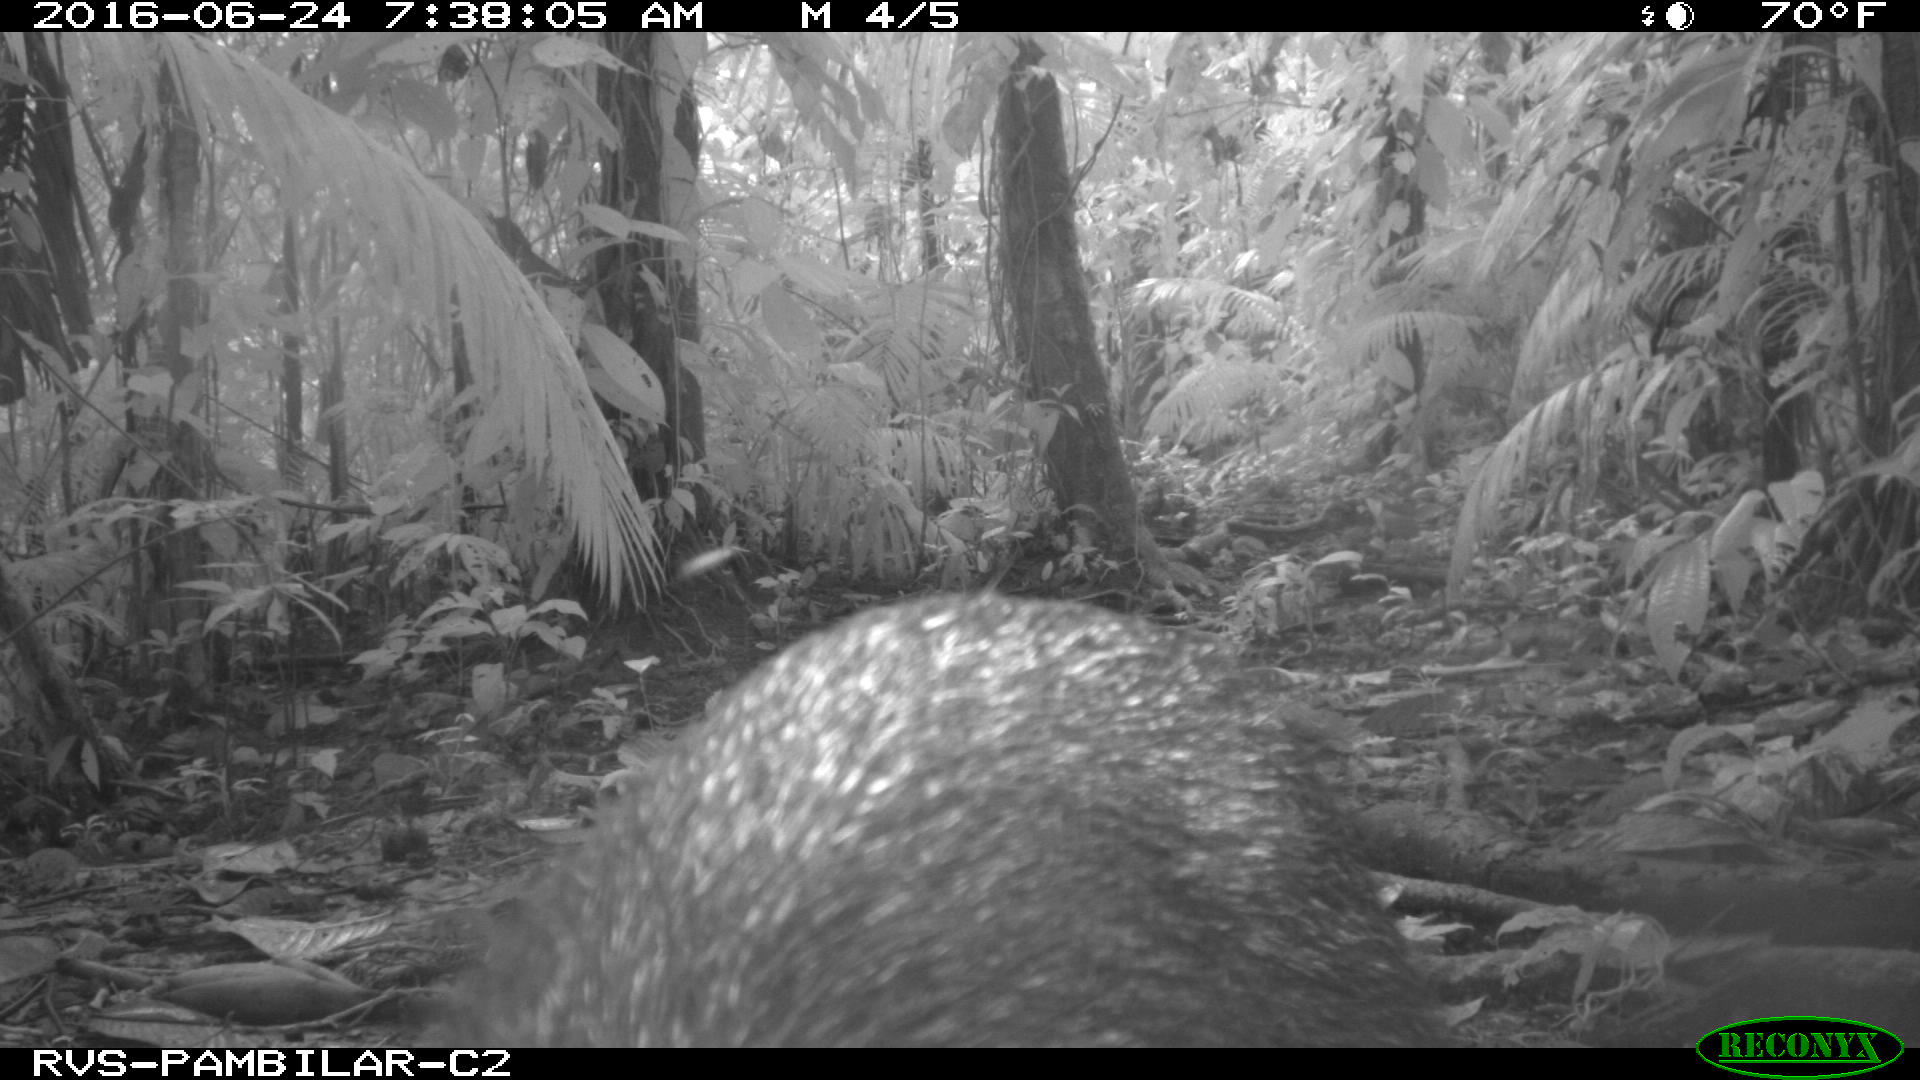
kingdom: Animalia
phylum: Chordata
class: Mammalia
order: Artiodactyla
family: Tayassuidae
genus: Pecari
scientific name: Pecari tajacu
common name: Collared peccary
